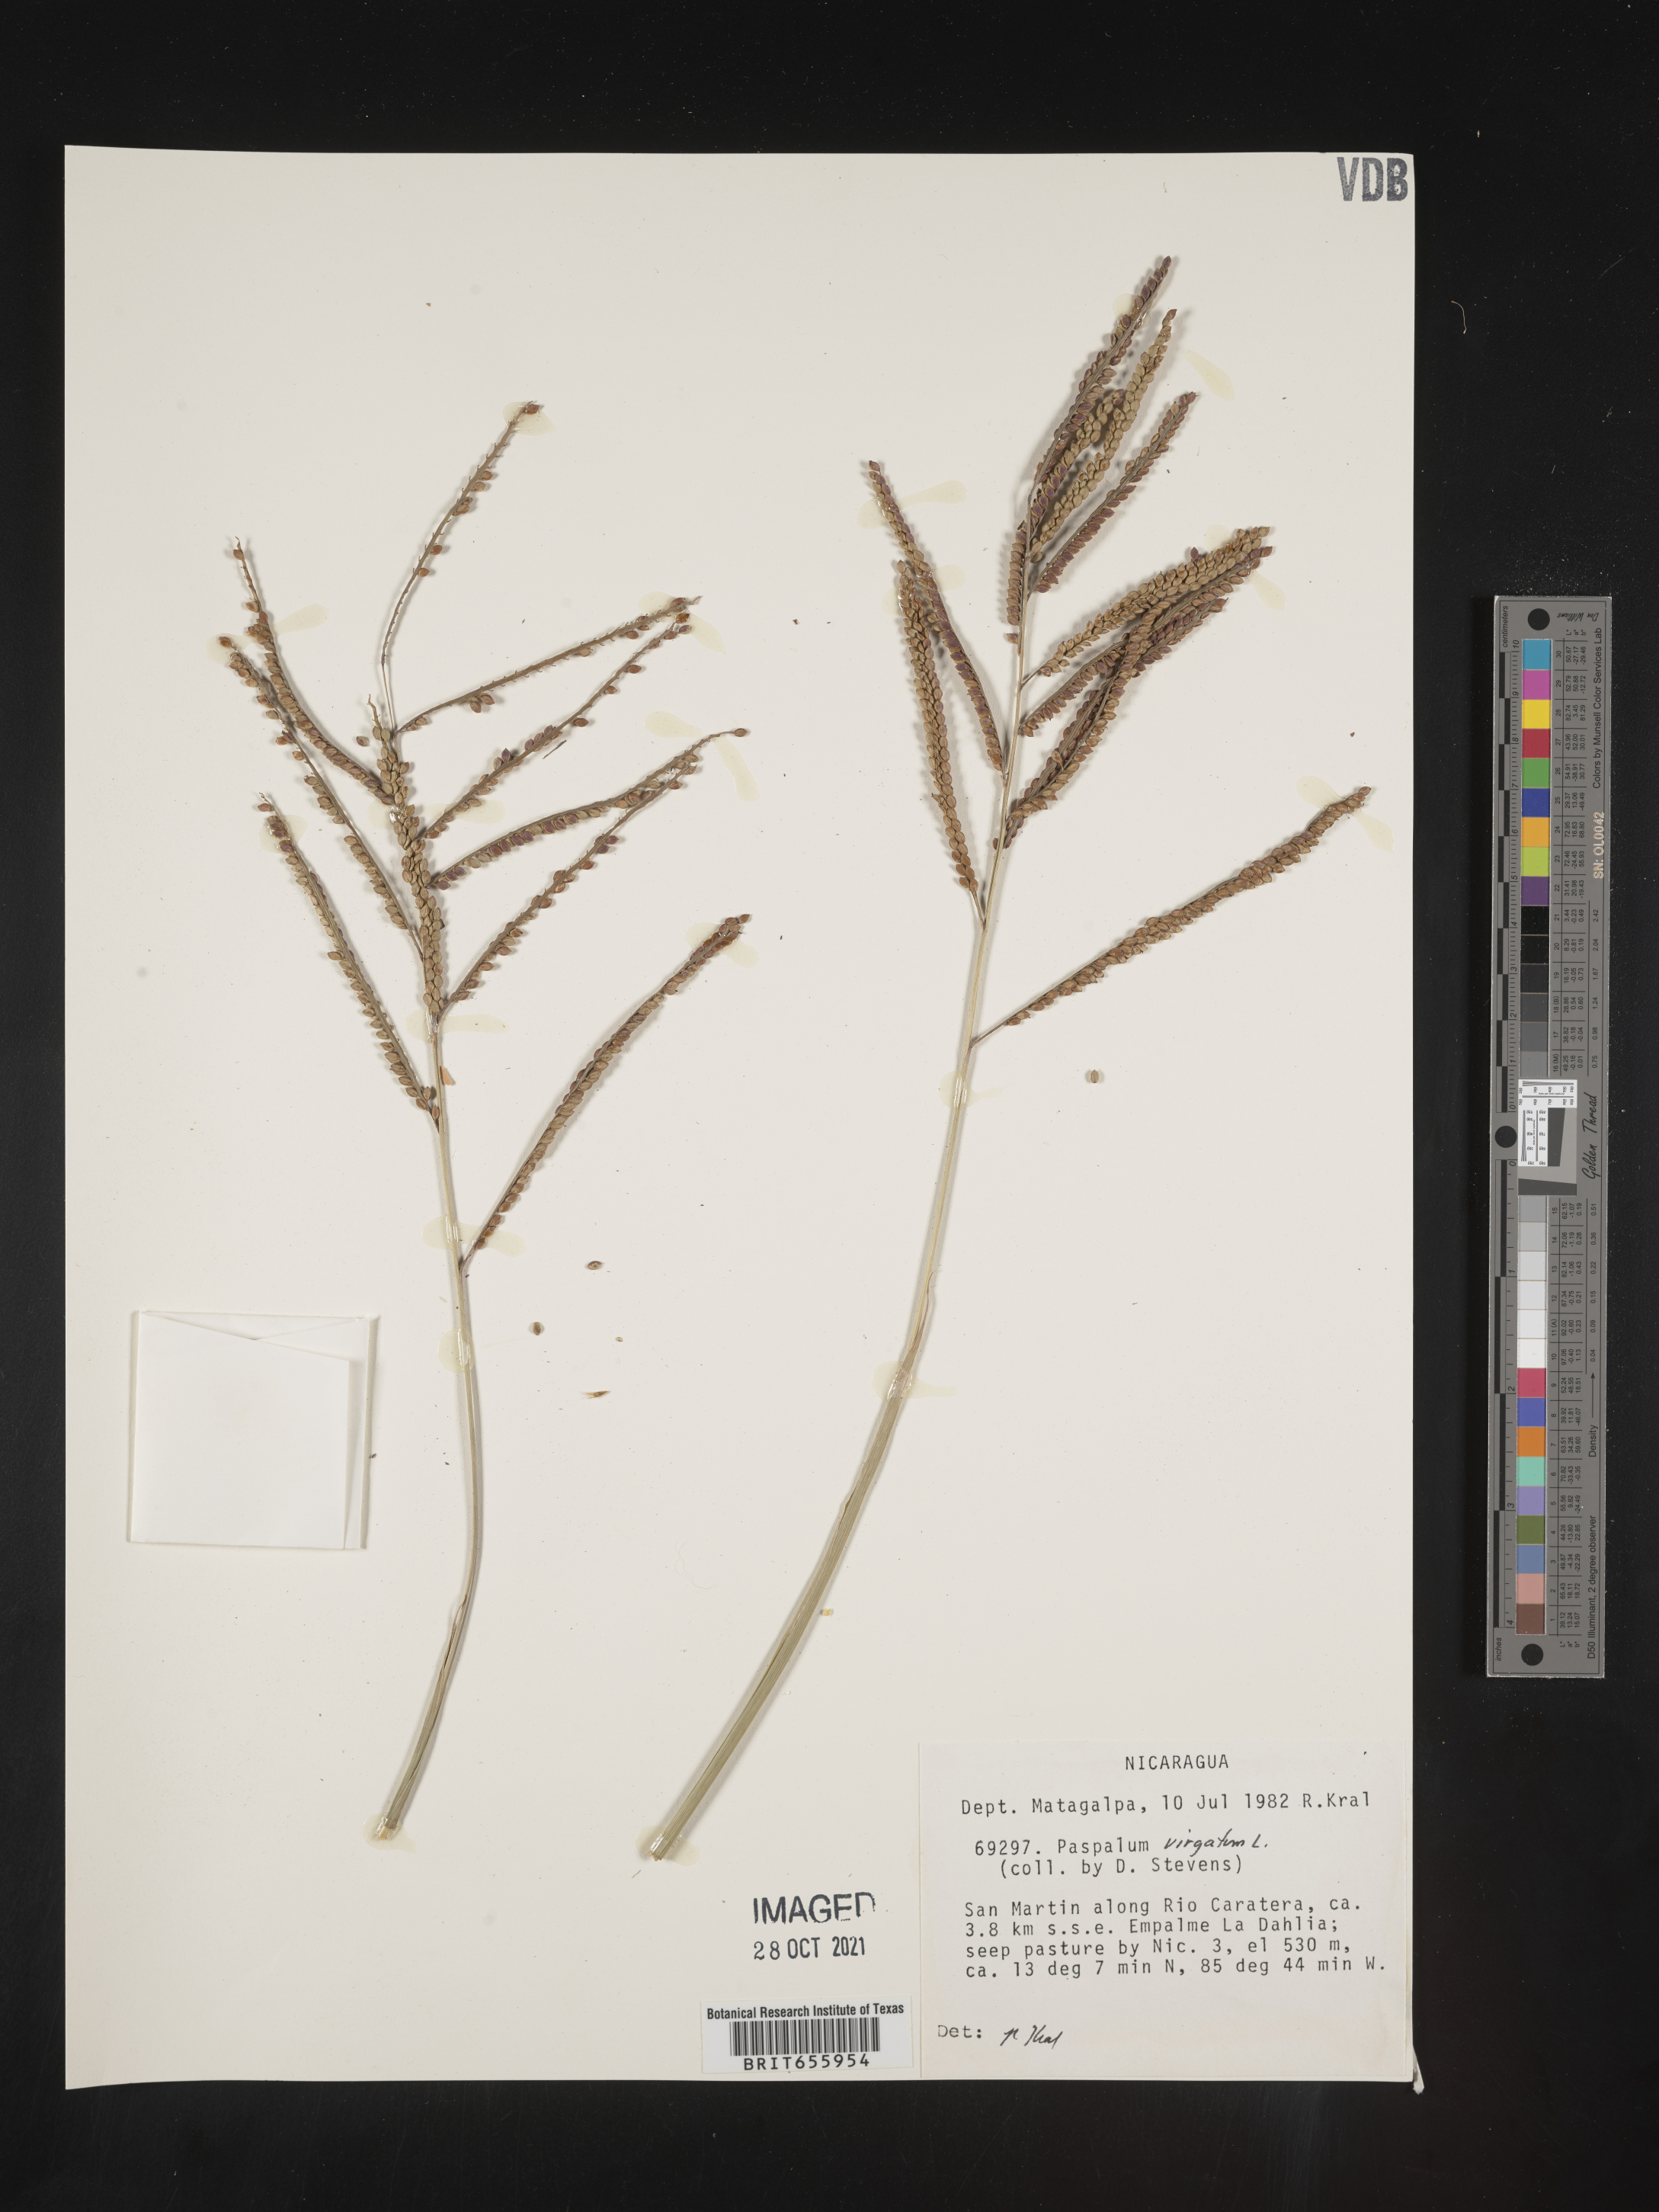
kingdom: Plantae
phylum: Tracheophyta
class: Liliopsida
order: Poales
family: Poaceae
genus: Paspalum
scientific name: Paspalum
